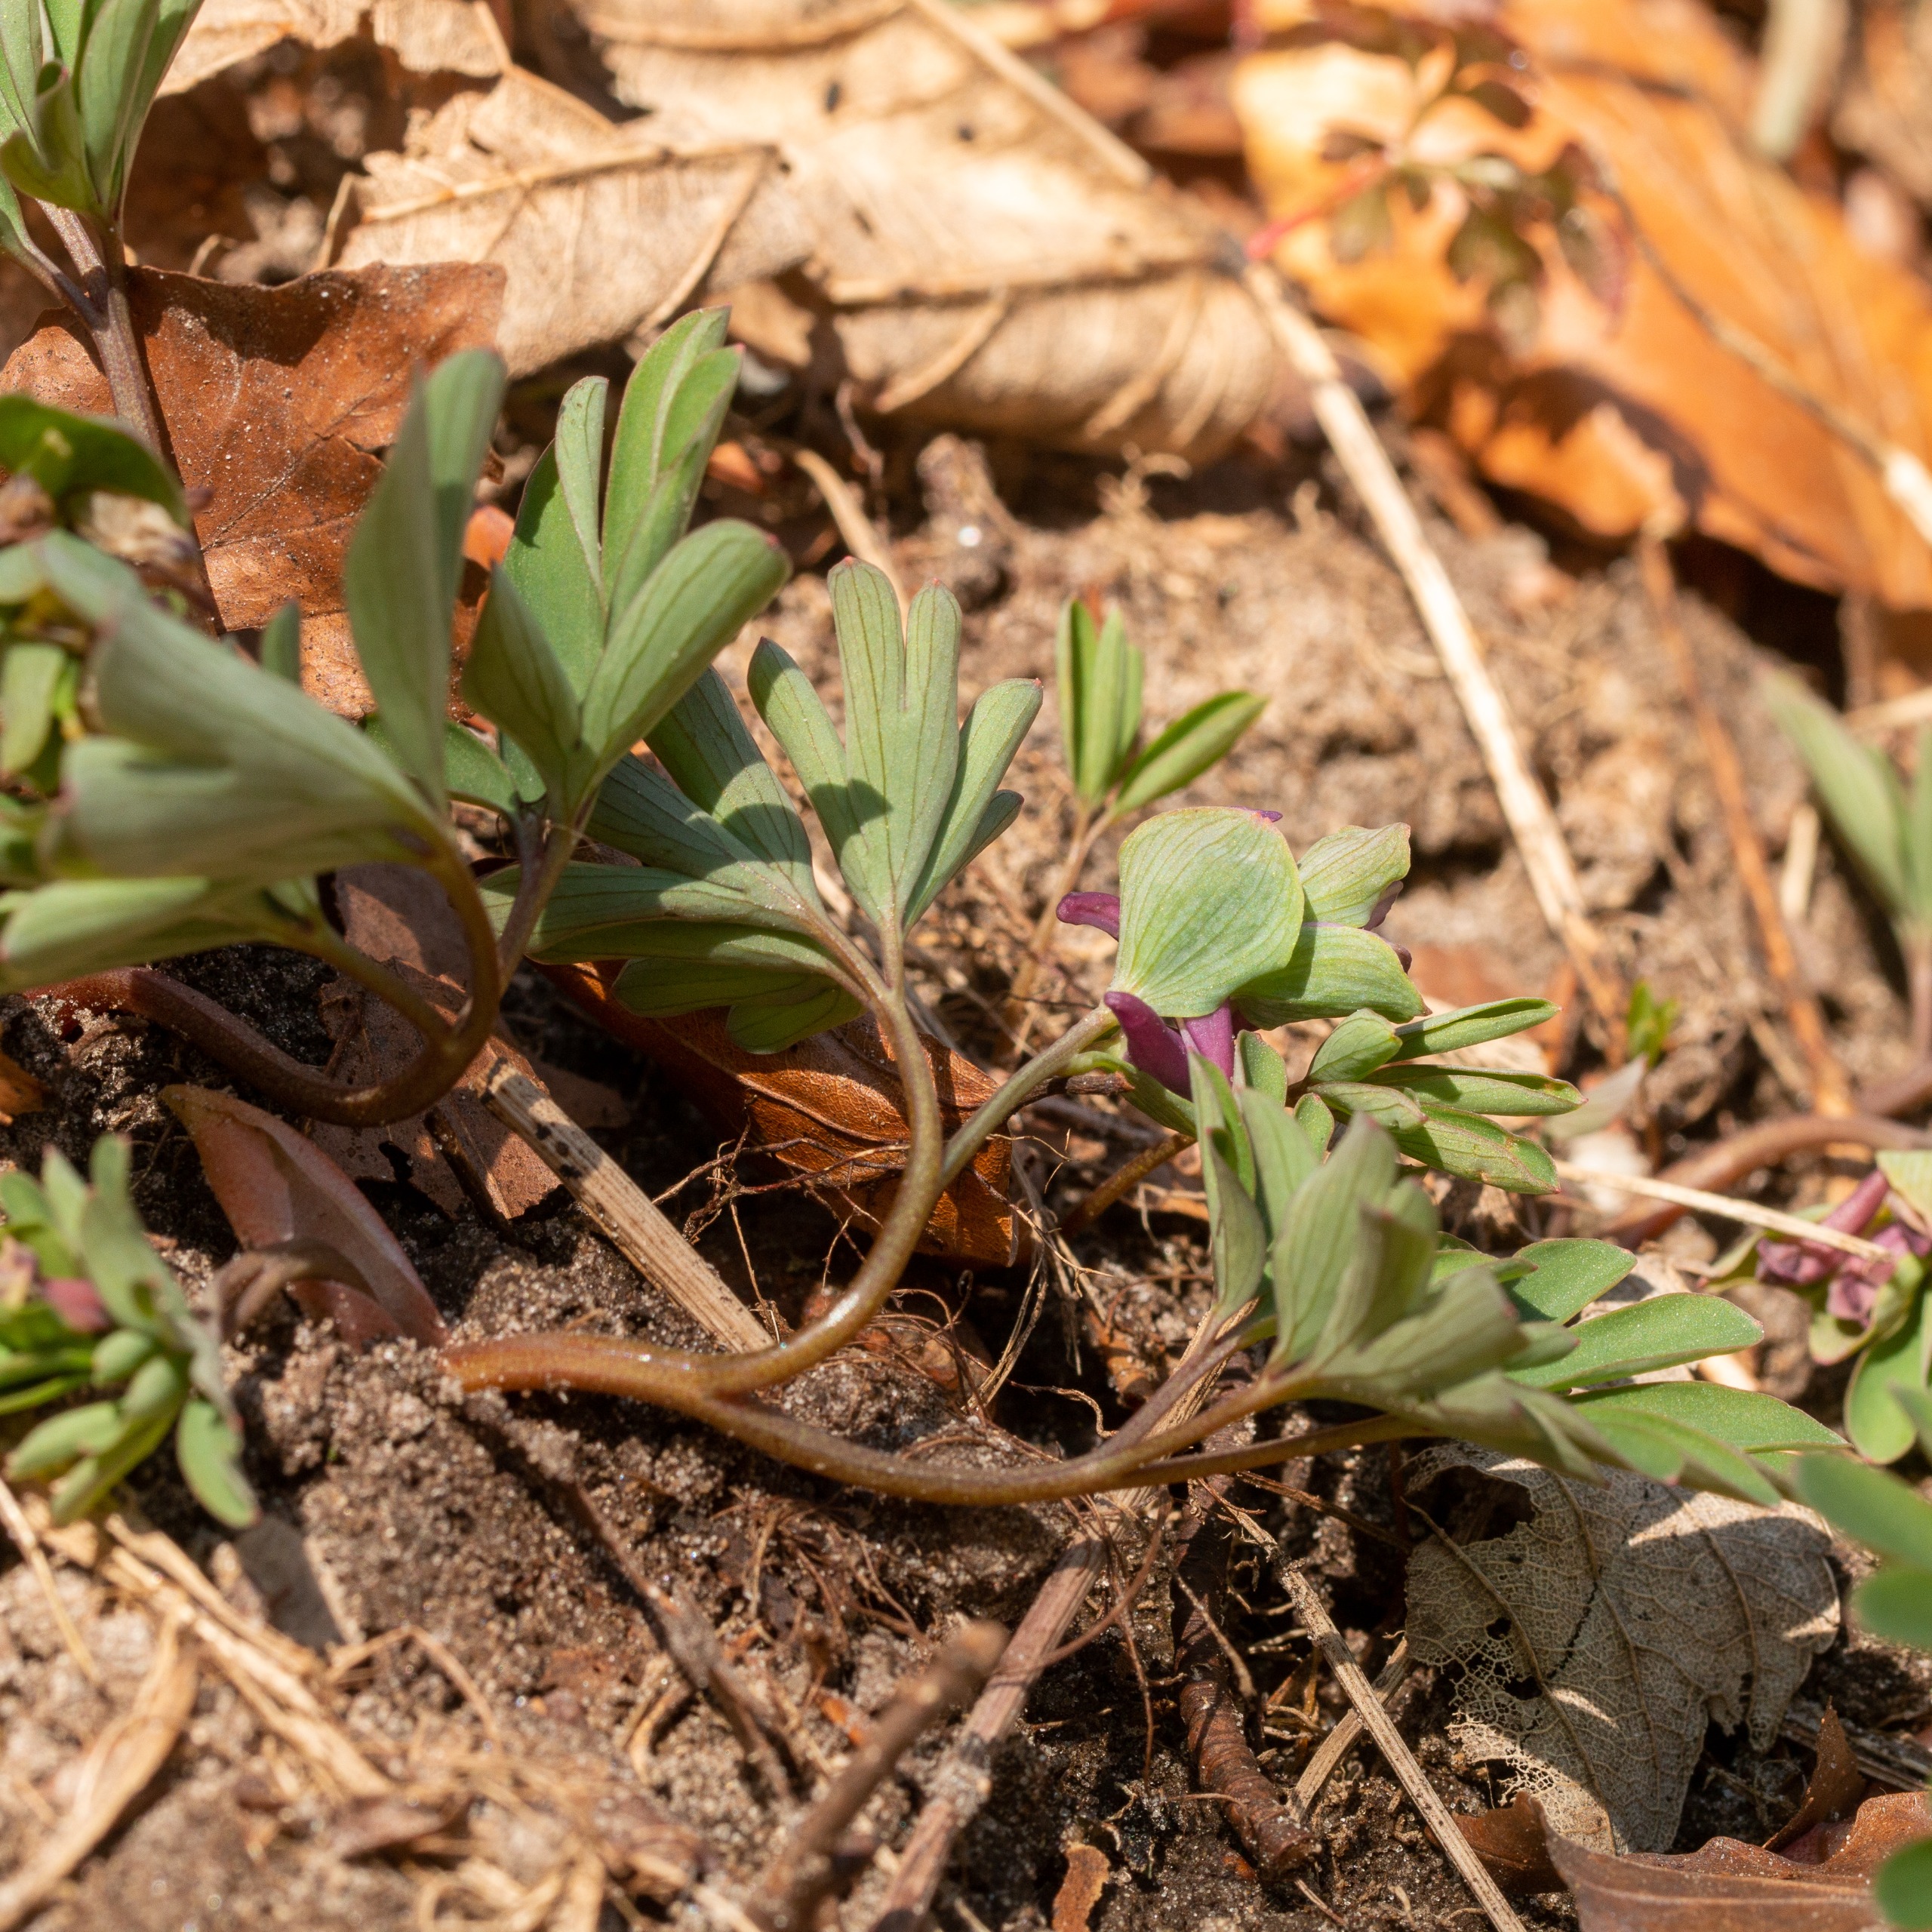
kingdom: Plantae
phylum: Tracheophyta
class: Magnoliopsida
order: Ranunculales
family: Papaveraceae
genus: Corydalis
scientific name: Corydalis intermedia
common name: Liden lærkespore
